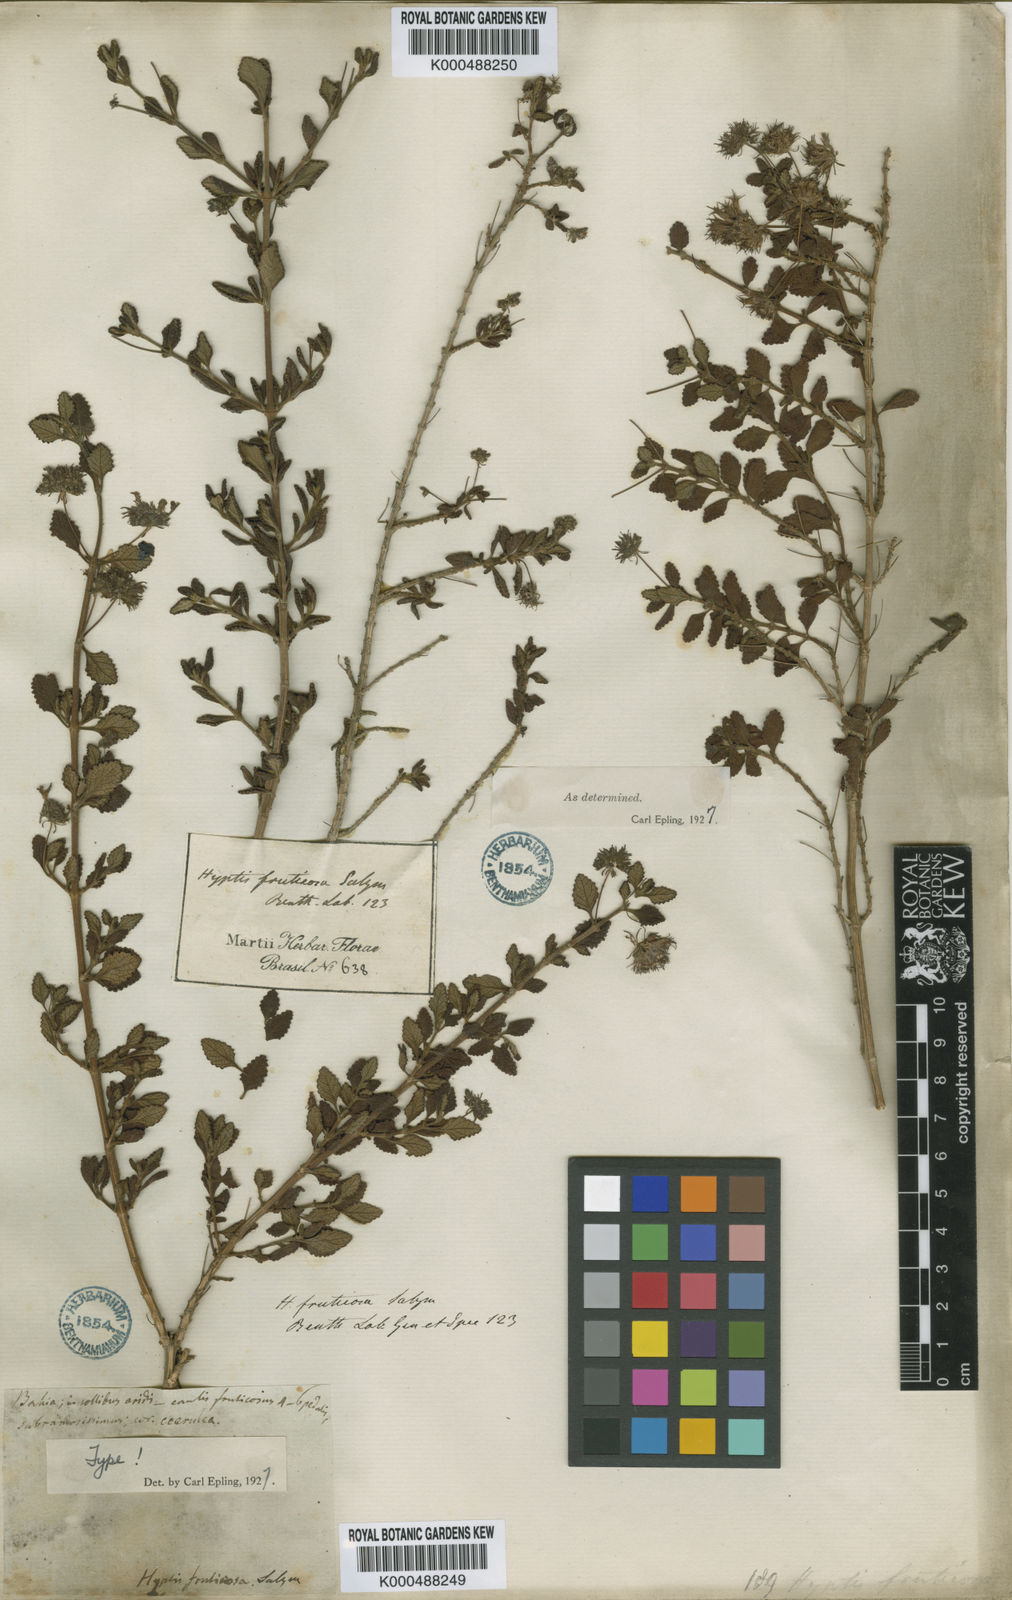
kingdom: Plantae
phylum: Tracheophyta
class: Magnoliopsida
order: Lamiales
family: Lamiaceae
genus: Eplingiella
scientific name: Eplingiella fruticosa
